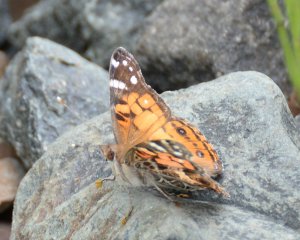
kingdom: Animalia
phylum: Arthropoda
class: Insecta
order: Lepidoptera
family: Nymphalidae
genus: Vanessa
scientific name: Vanessa virginiensis
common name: American Lady
